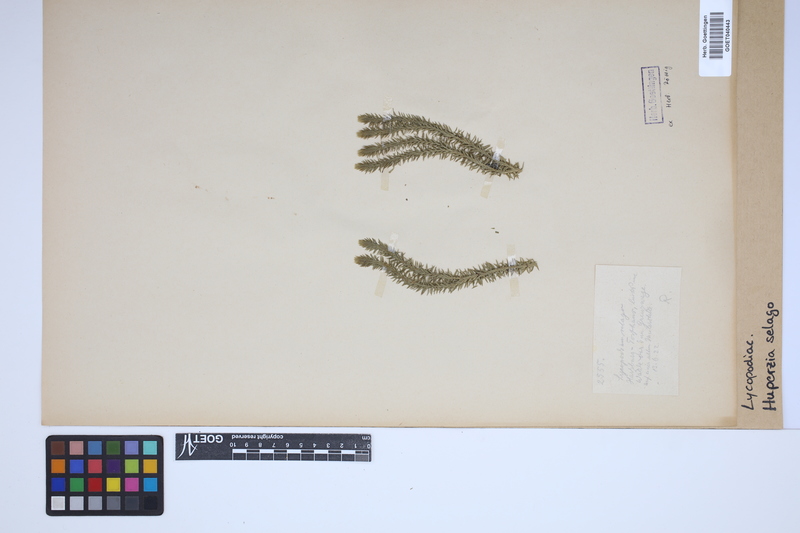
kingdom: Plantae
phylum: Tracheophyta
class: Lycopodiopsida
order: Lycopodiales
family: Lycopodiaceae
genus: Huperzia
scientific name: Huperzia selago
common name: Northern firmoss
